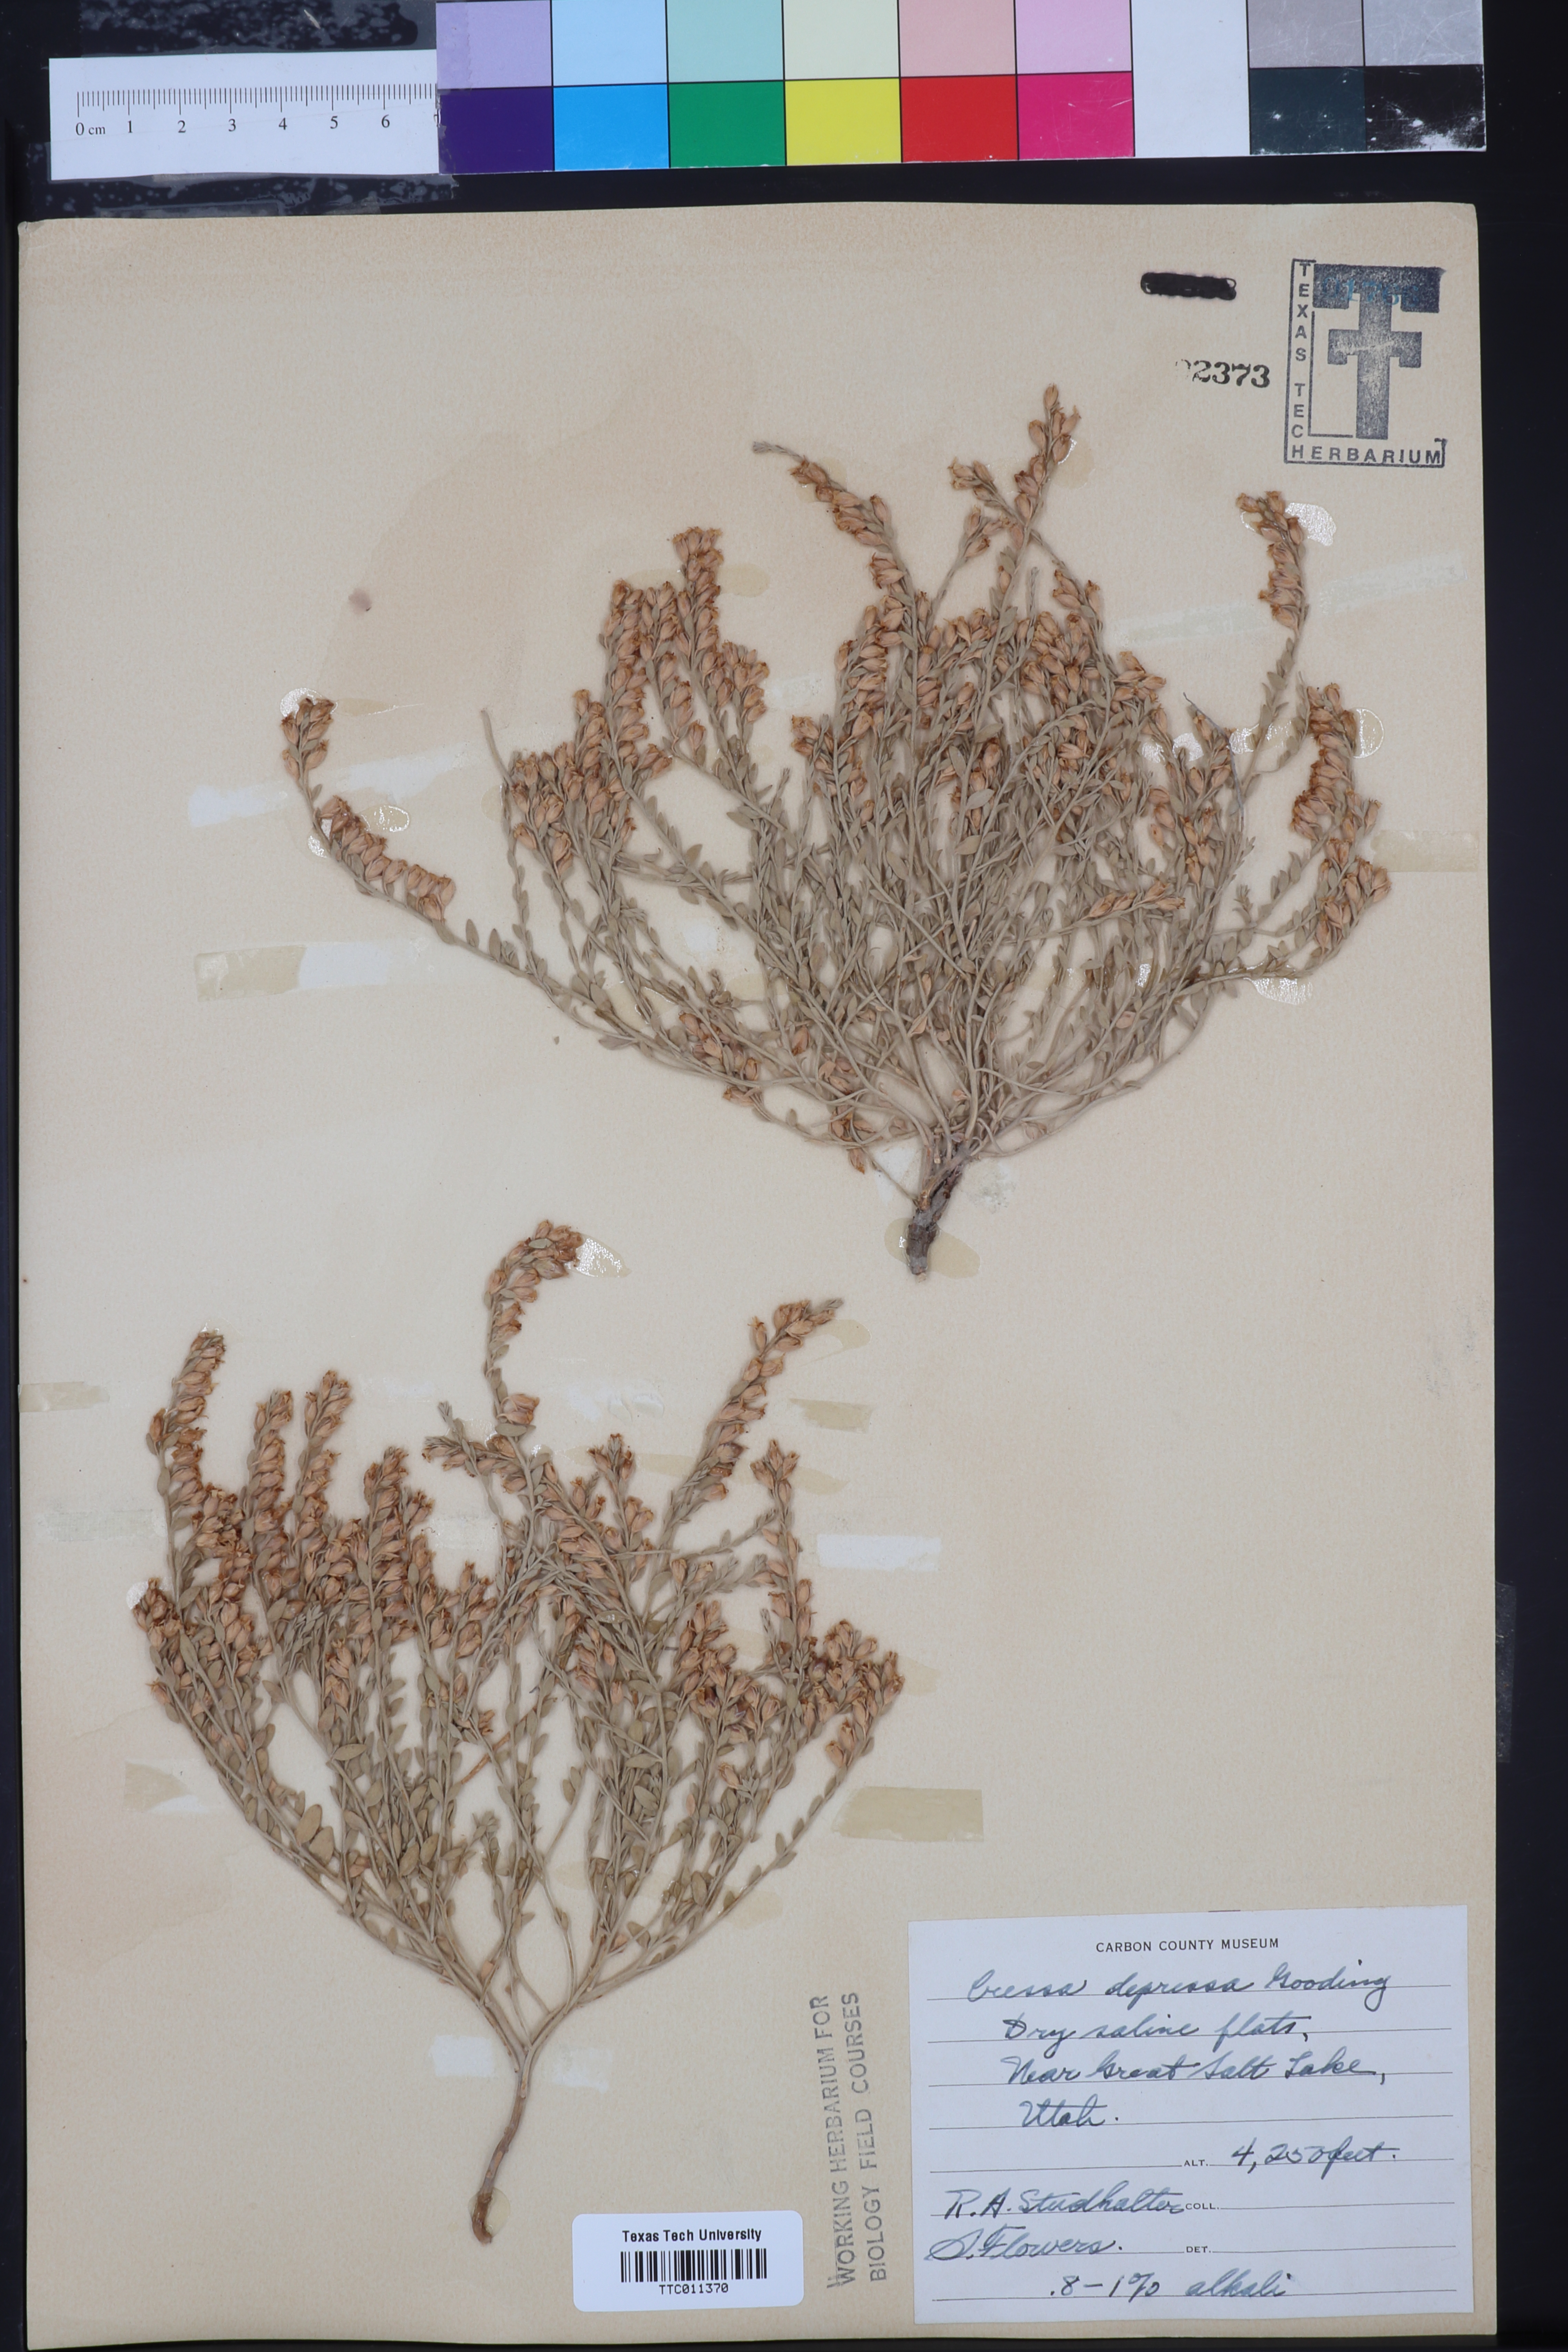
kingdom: Plantae
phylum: Tracheophyta
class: Magnoliopsida
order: Solanales
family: Convolvulaceae
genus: Cressa
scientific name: Cressa truxillensis
